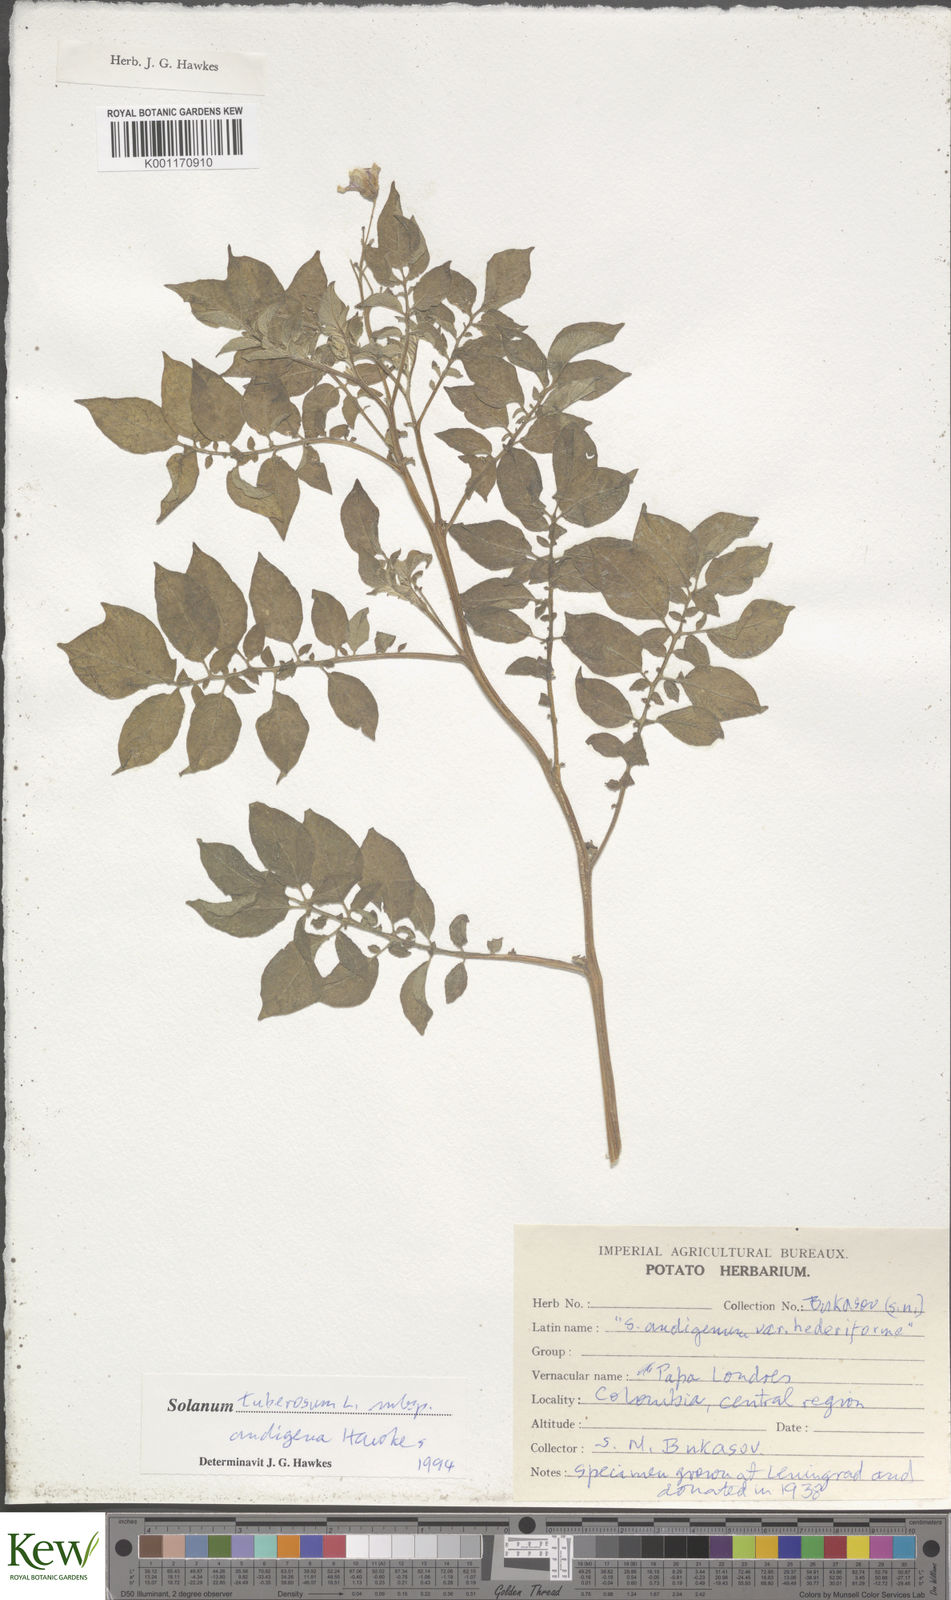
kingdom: Plantae
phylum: Tracheophyta
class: Magnoliopsida
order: Solanales
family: Solanaceae
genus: Solanum
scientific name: Solanum tuberosum
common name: Potato
